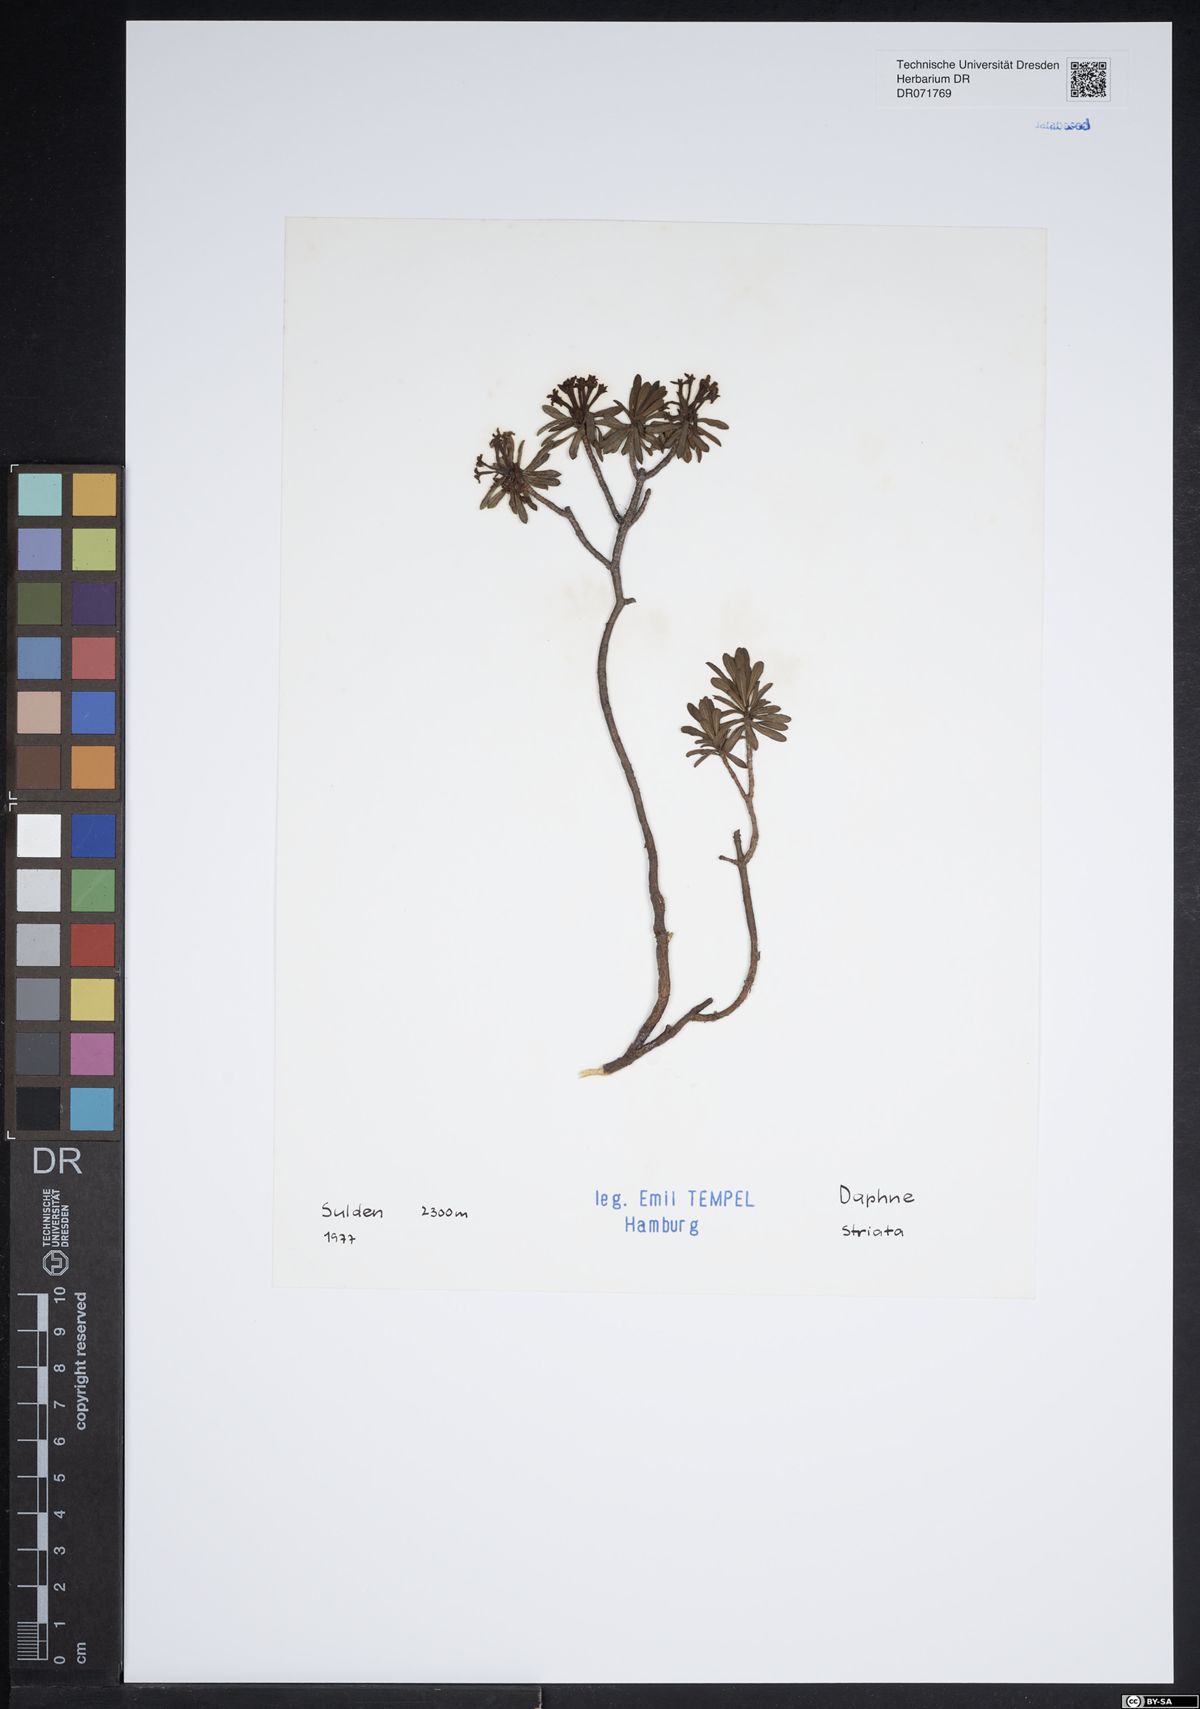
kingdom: Plantae
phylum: Tracheophyta
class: Magnoliopsida
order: Malvales
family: Thymelaeaceae
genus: Daphne
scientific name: Daphne striata
